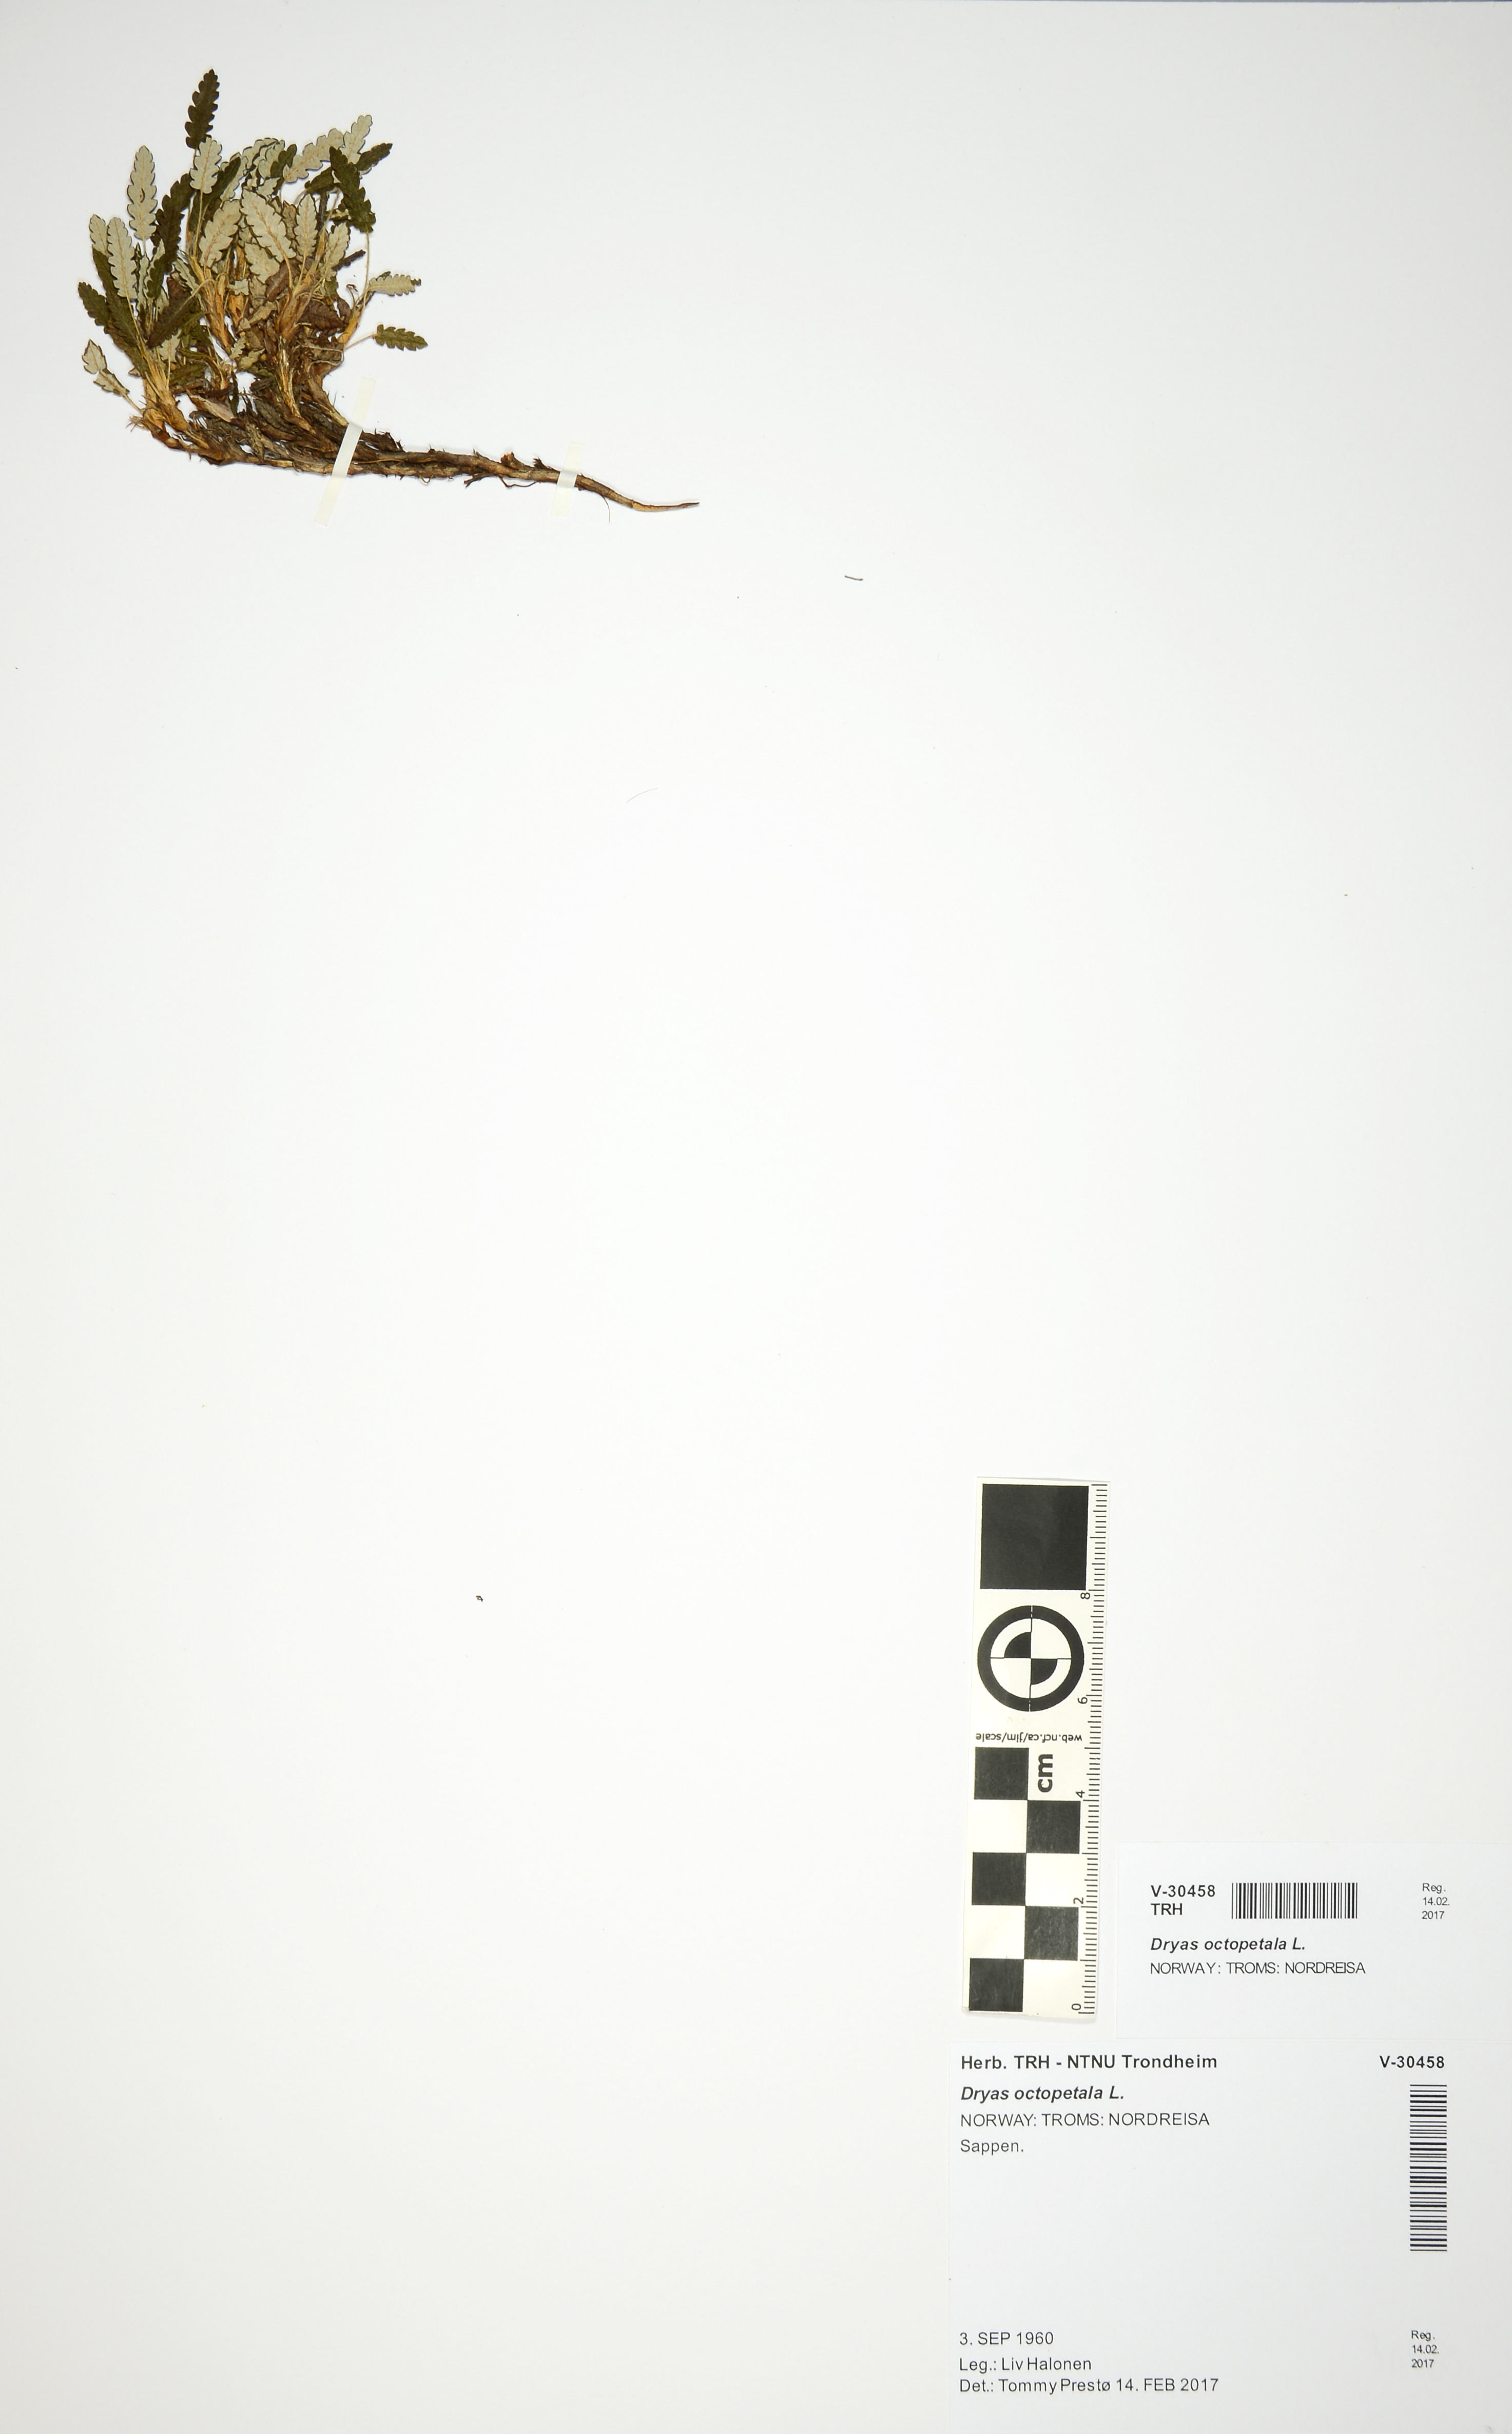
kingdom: Plantae
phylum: Tracheophyta
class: Magnoliopsida
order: Rosales
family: Rosaceae
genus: Dryas
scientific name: Dryas octopetala
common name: Eight-petal mountain-avens
